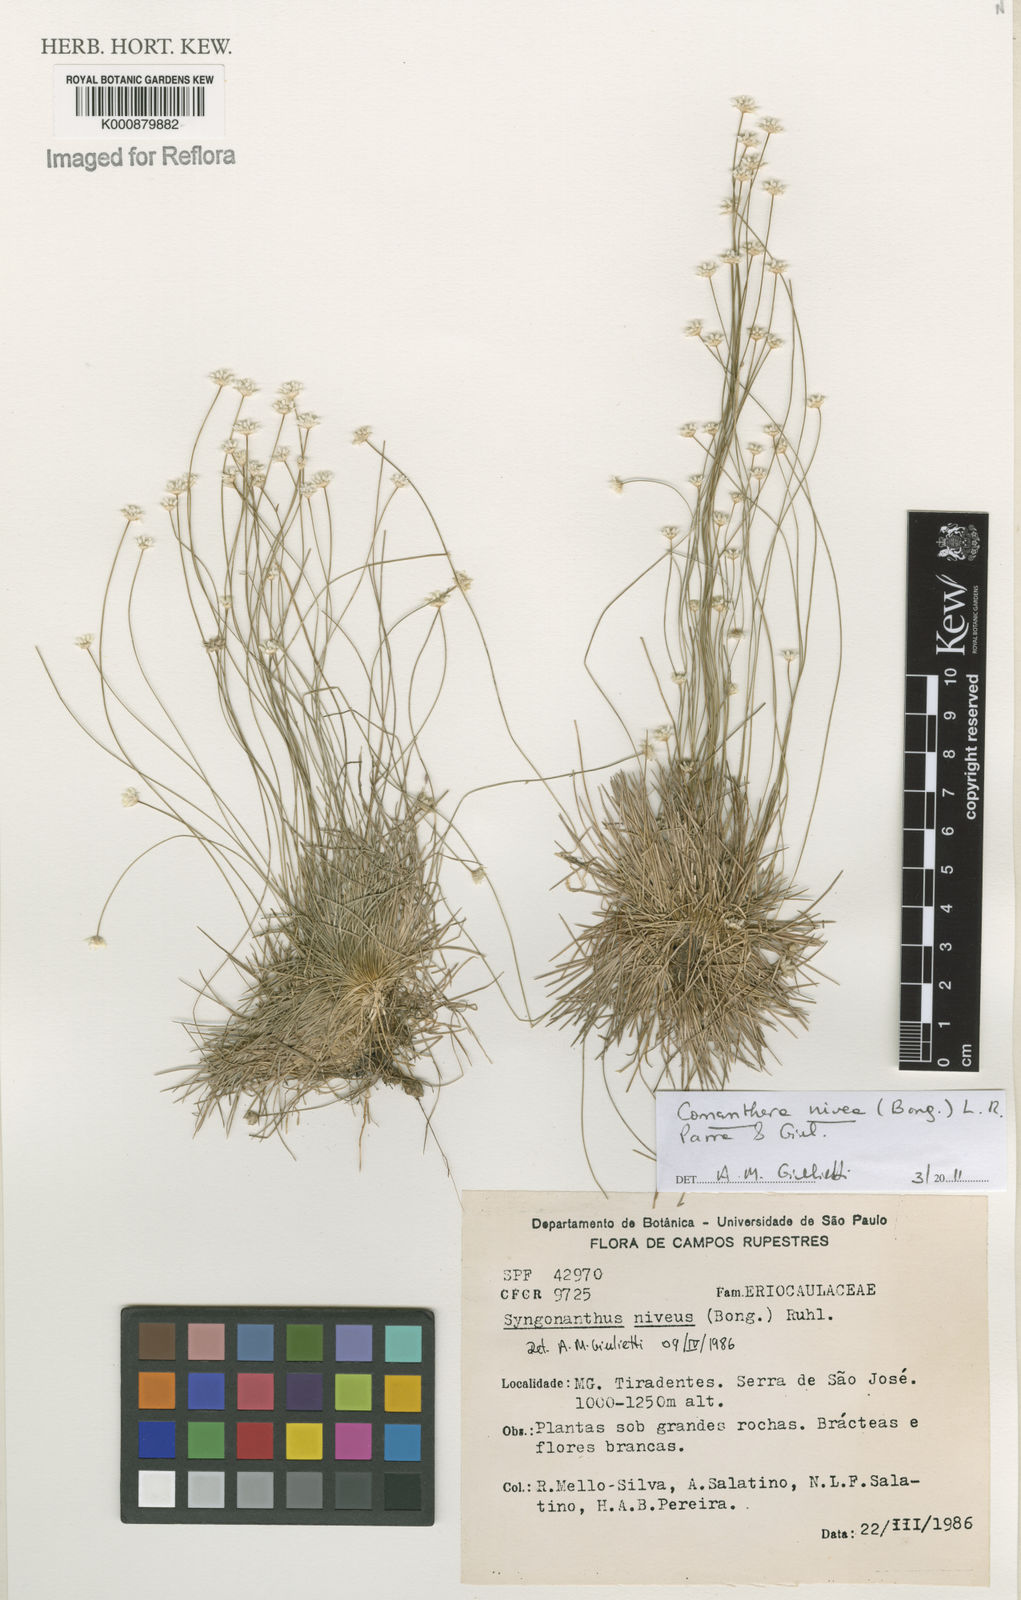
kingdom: Plantae
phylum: Tracheophyta
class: Liliopsida
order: Poales
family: Eriocaulaceae
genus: Comanthera
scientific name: Comanthera nivea
